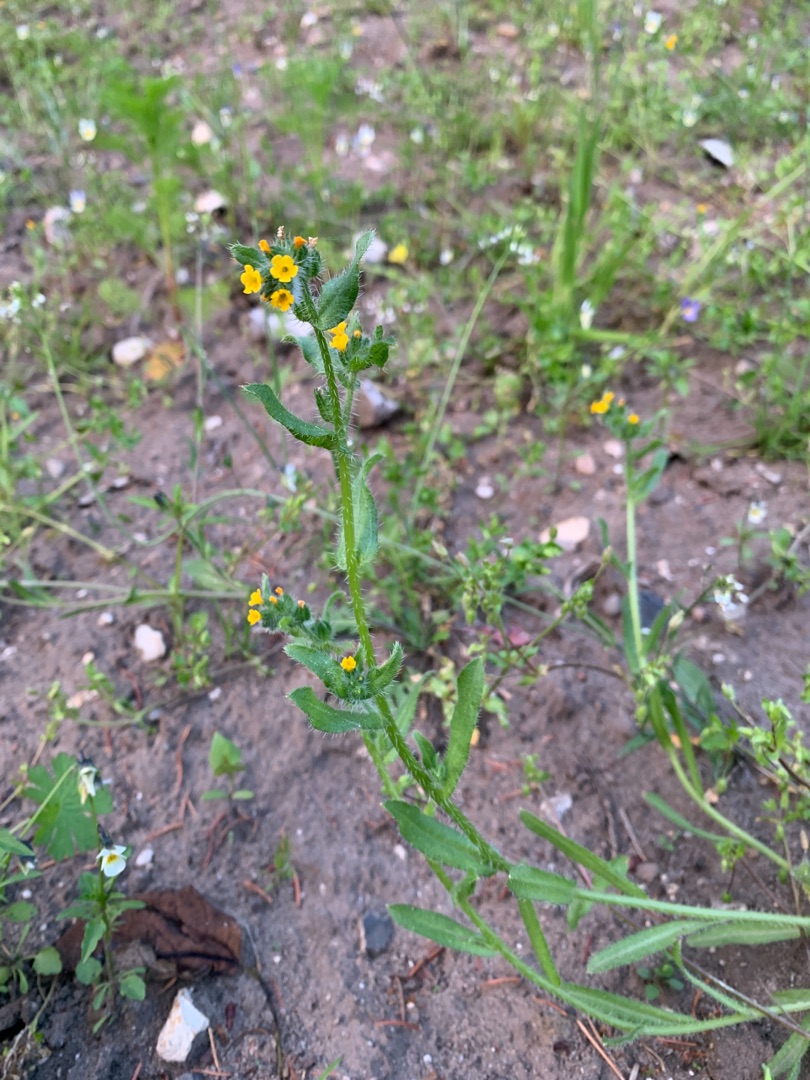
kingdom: Plantae
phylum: Tracheophyta
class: Magnoliopsida
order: Boraginales
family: Boraginaceae
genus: Amsinckia
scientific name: Amsinckia menziesii
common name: Småblomstret gulurt
